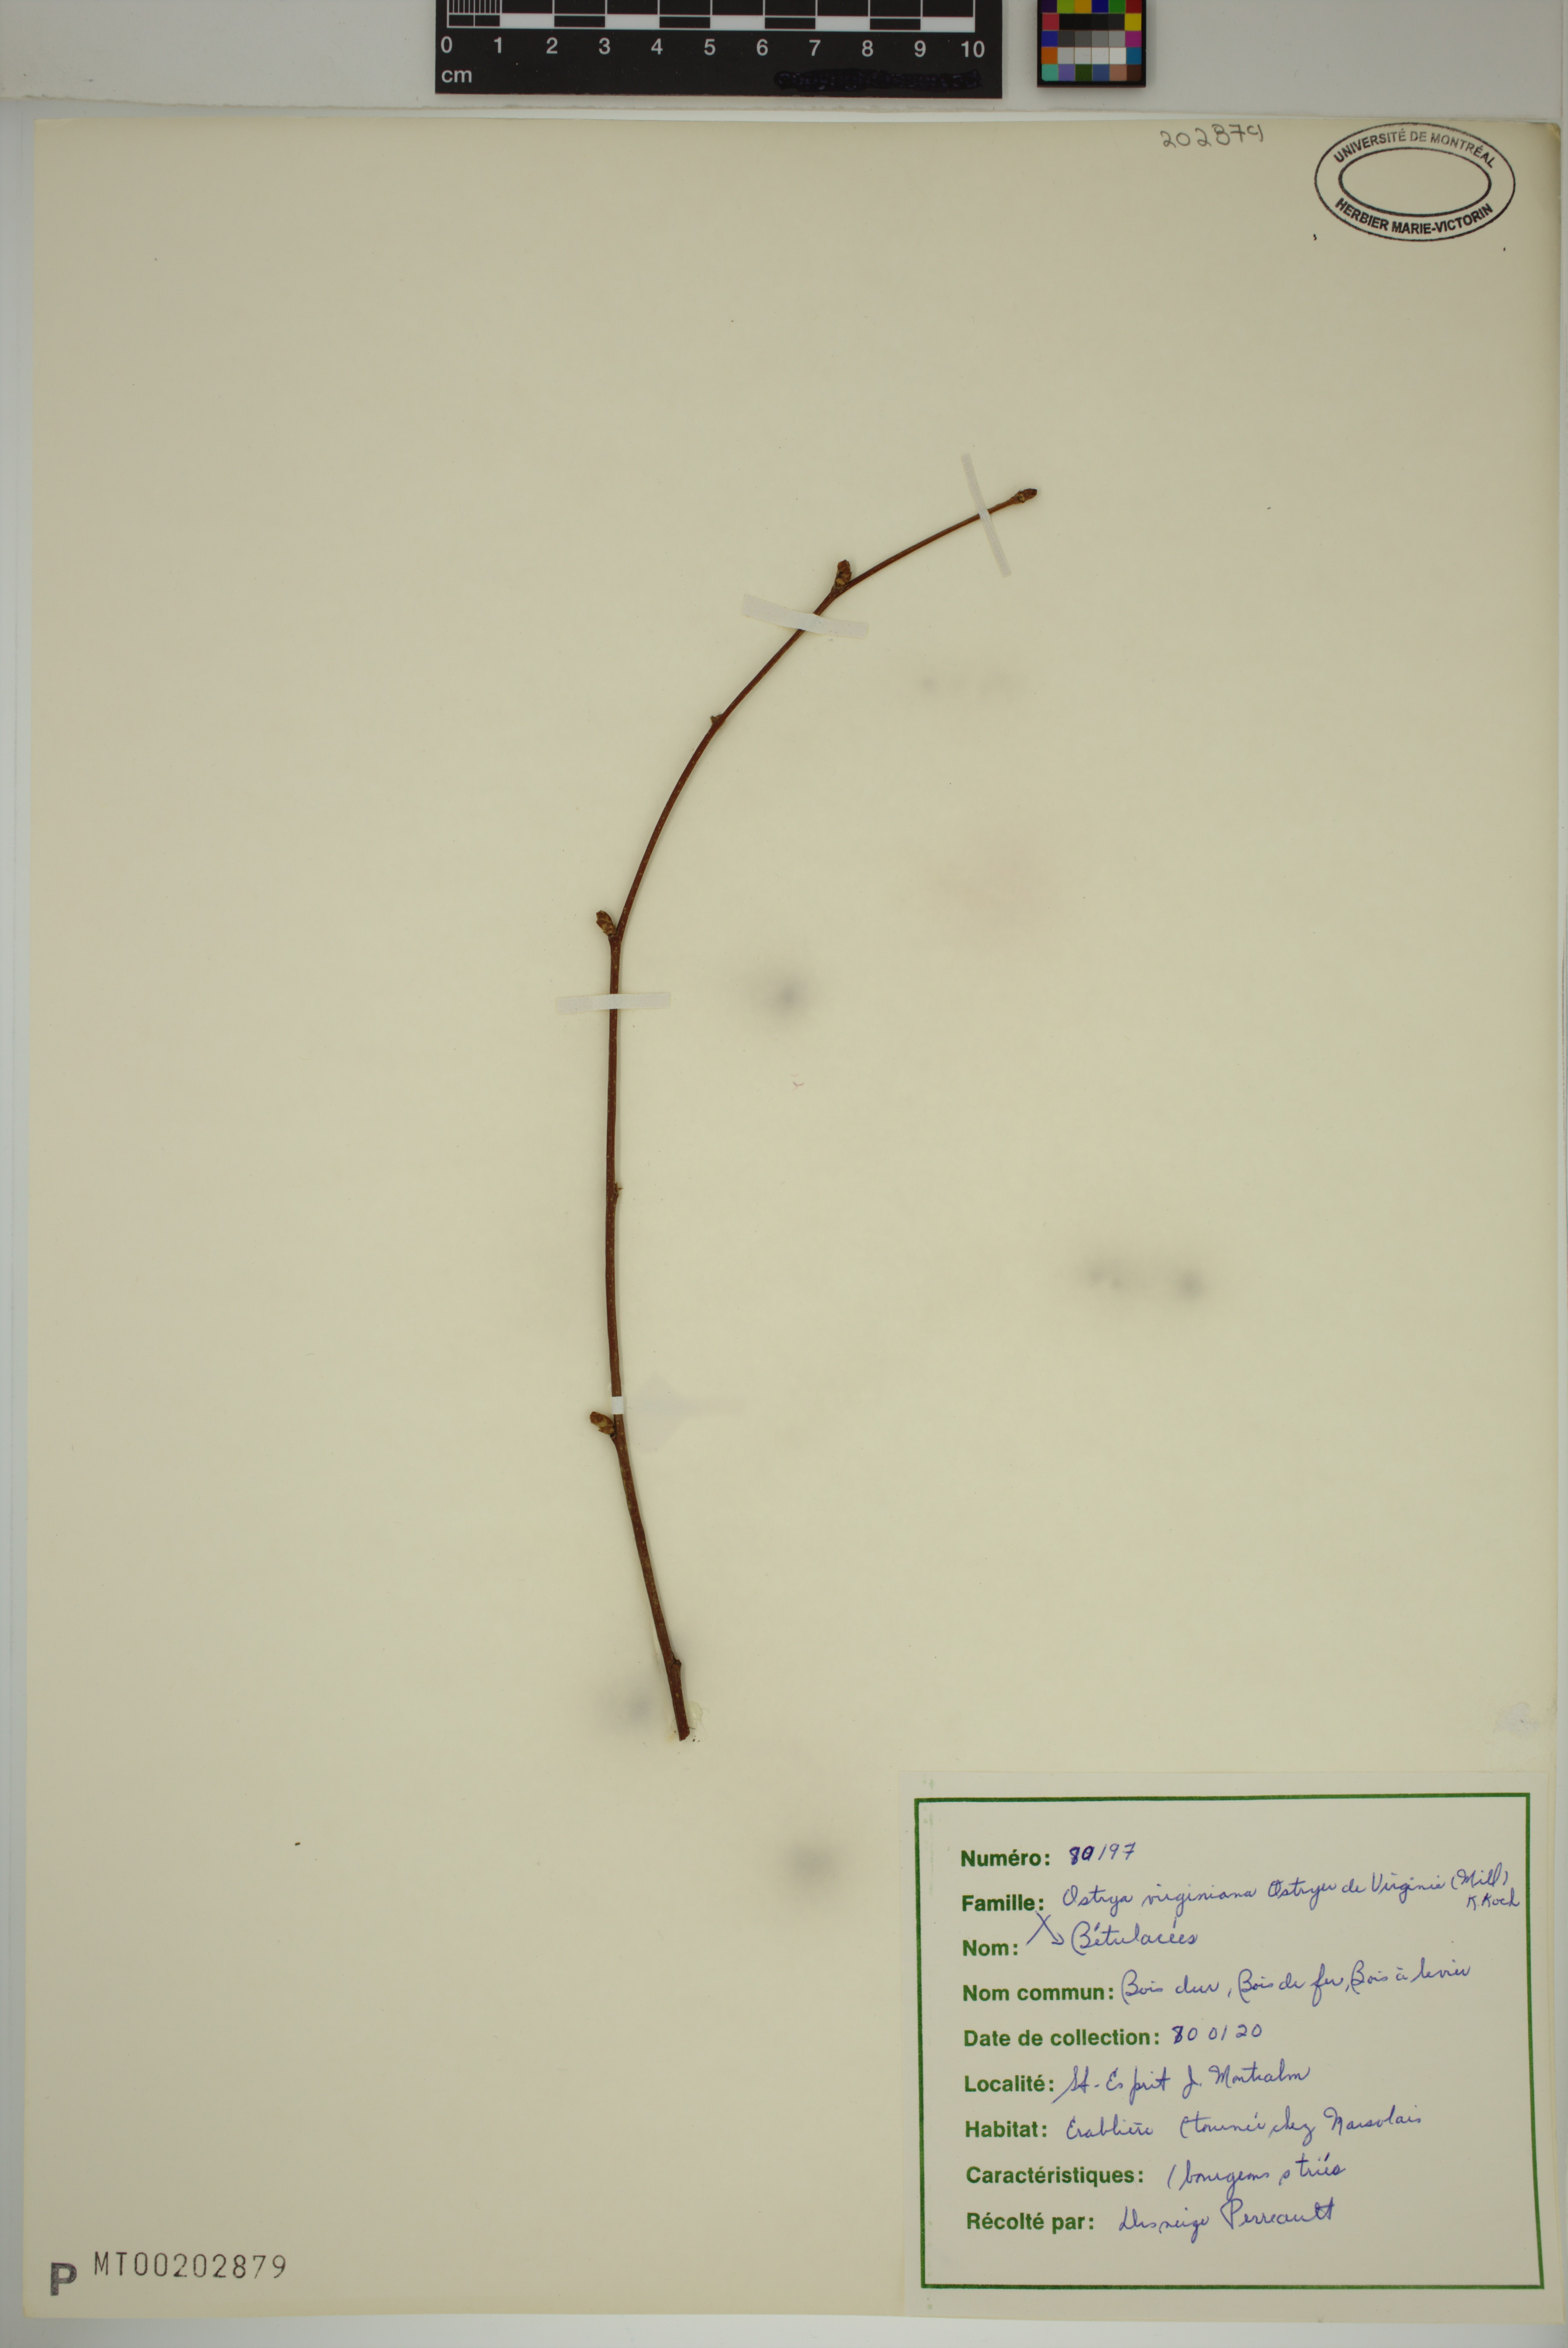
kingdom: Plantae
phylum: Tracheophyta
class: Magnoliopsida
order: Fagales
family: Betulaceae
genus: Ostrya
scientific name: Ostrya virginiana
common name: Ironwood
